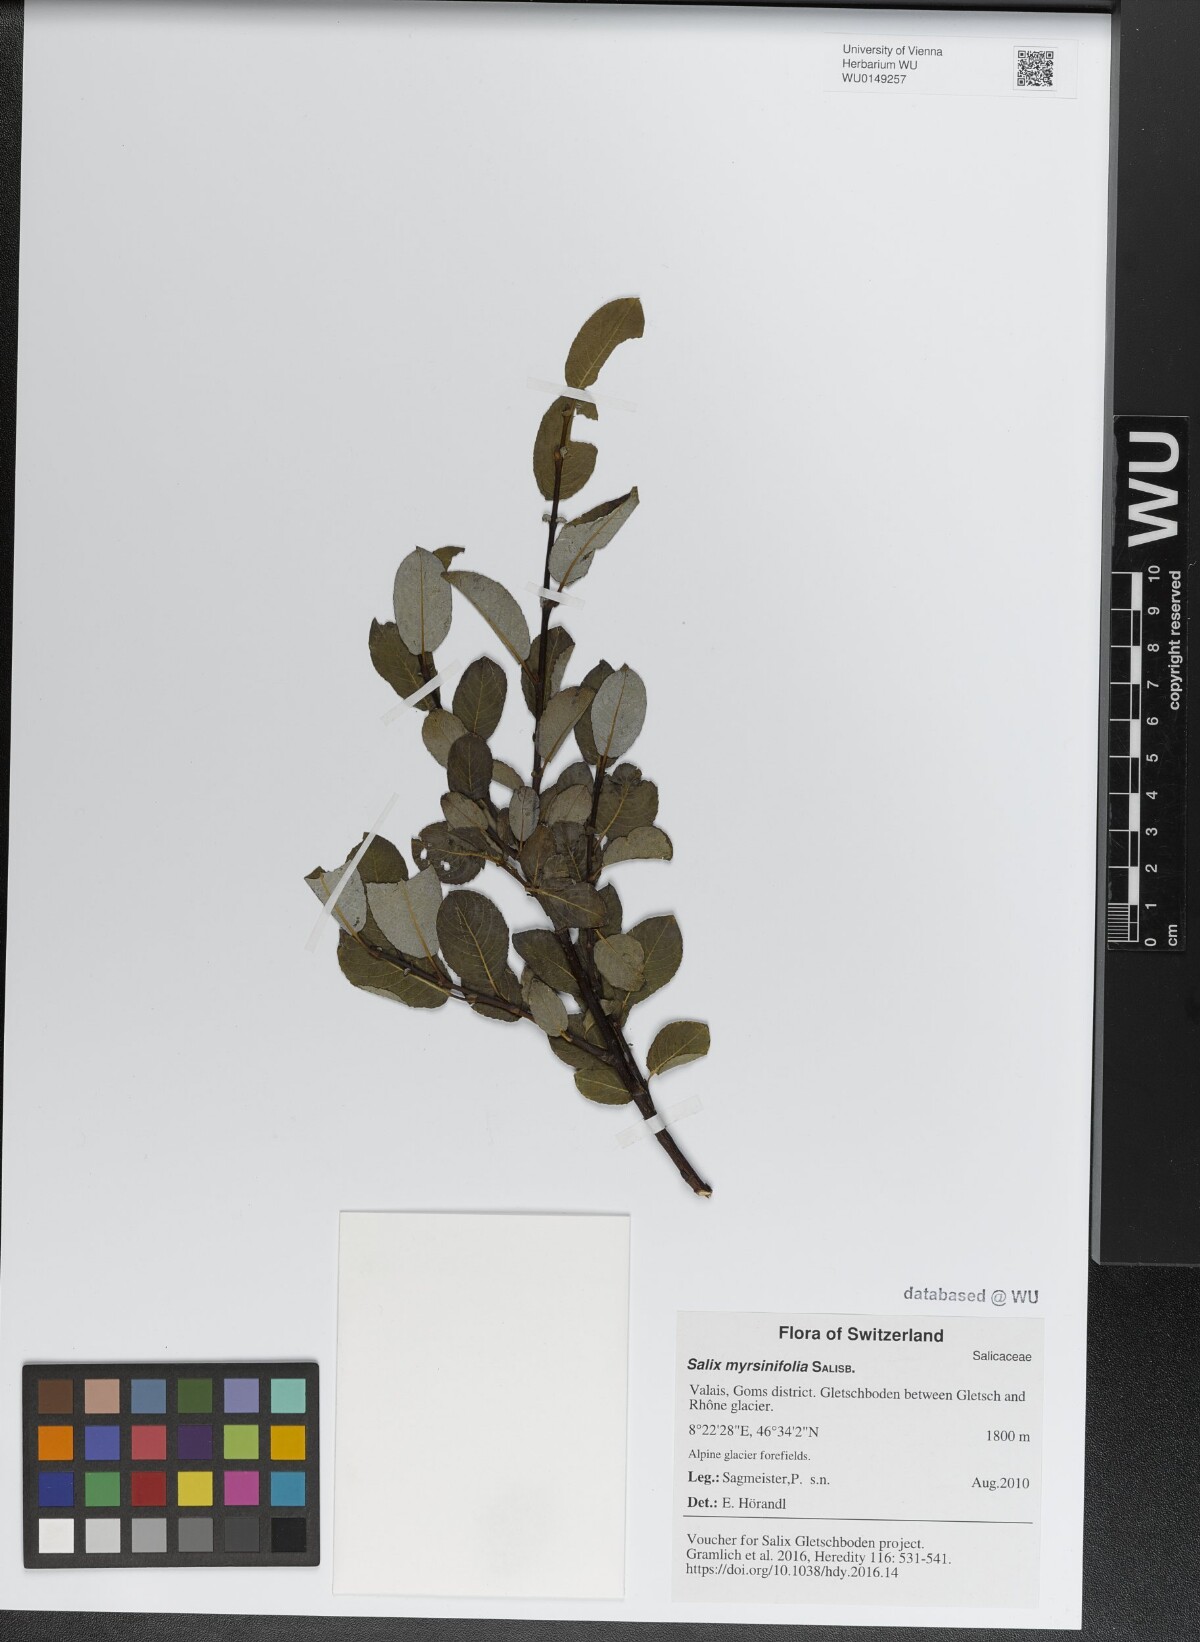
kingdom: Plantae
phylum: Tracheophyta
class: Magnoliopsida
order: Malpighiales
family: Salicaceae
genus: Salix
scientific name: Salix myrsinifolia
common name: Dark-leaved willow
